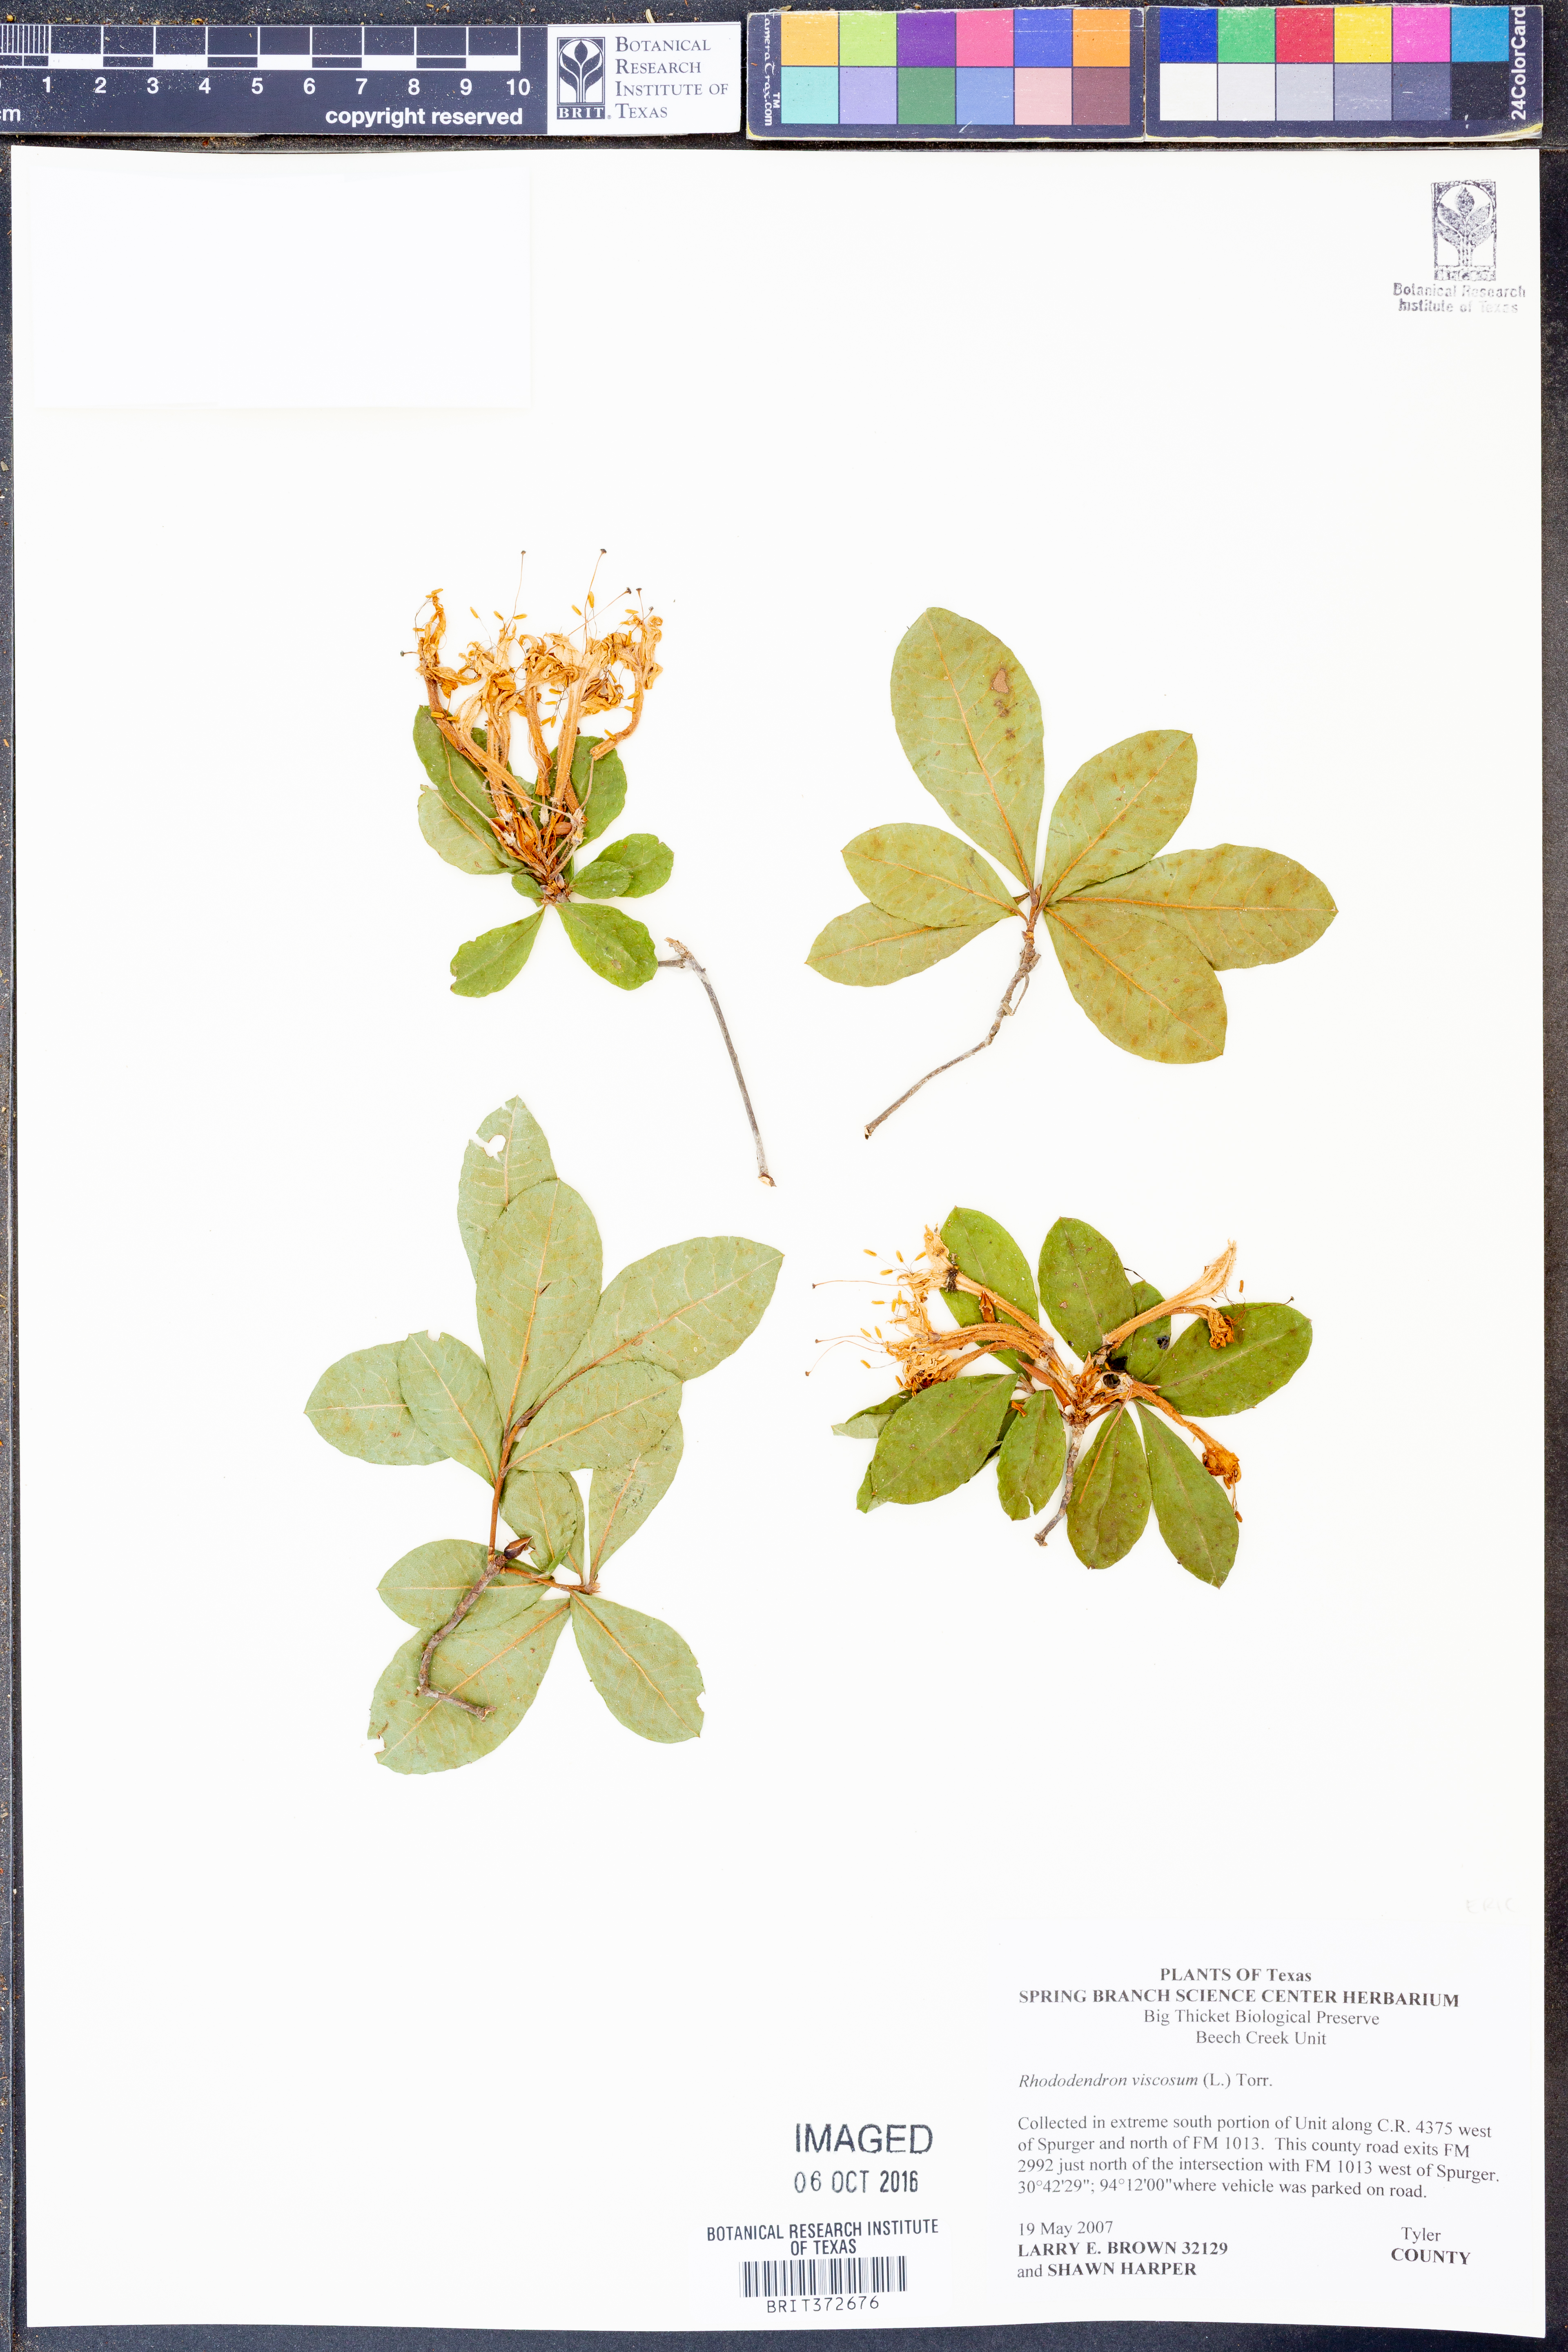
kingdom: Plantae
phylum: Tracheophyta
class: Magnoliopsida
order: Ericales
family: Ericaceae
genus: Rhododendron
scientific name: Rhododendron viscosum
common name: Clammy azalea
